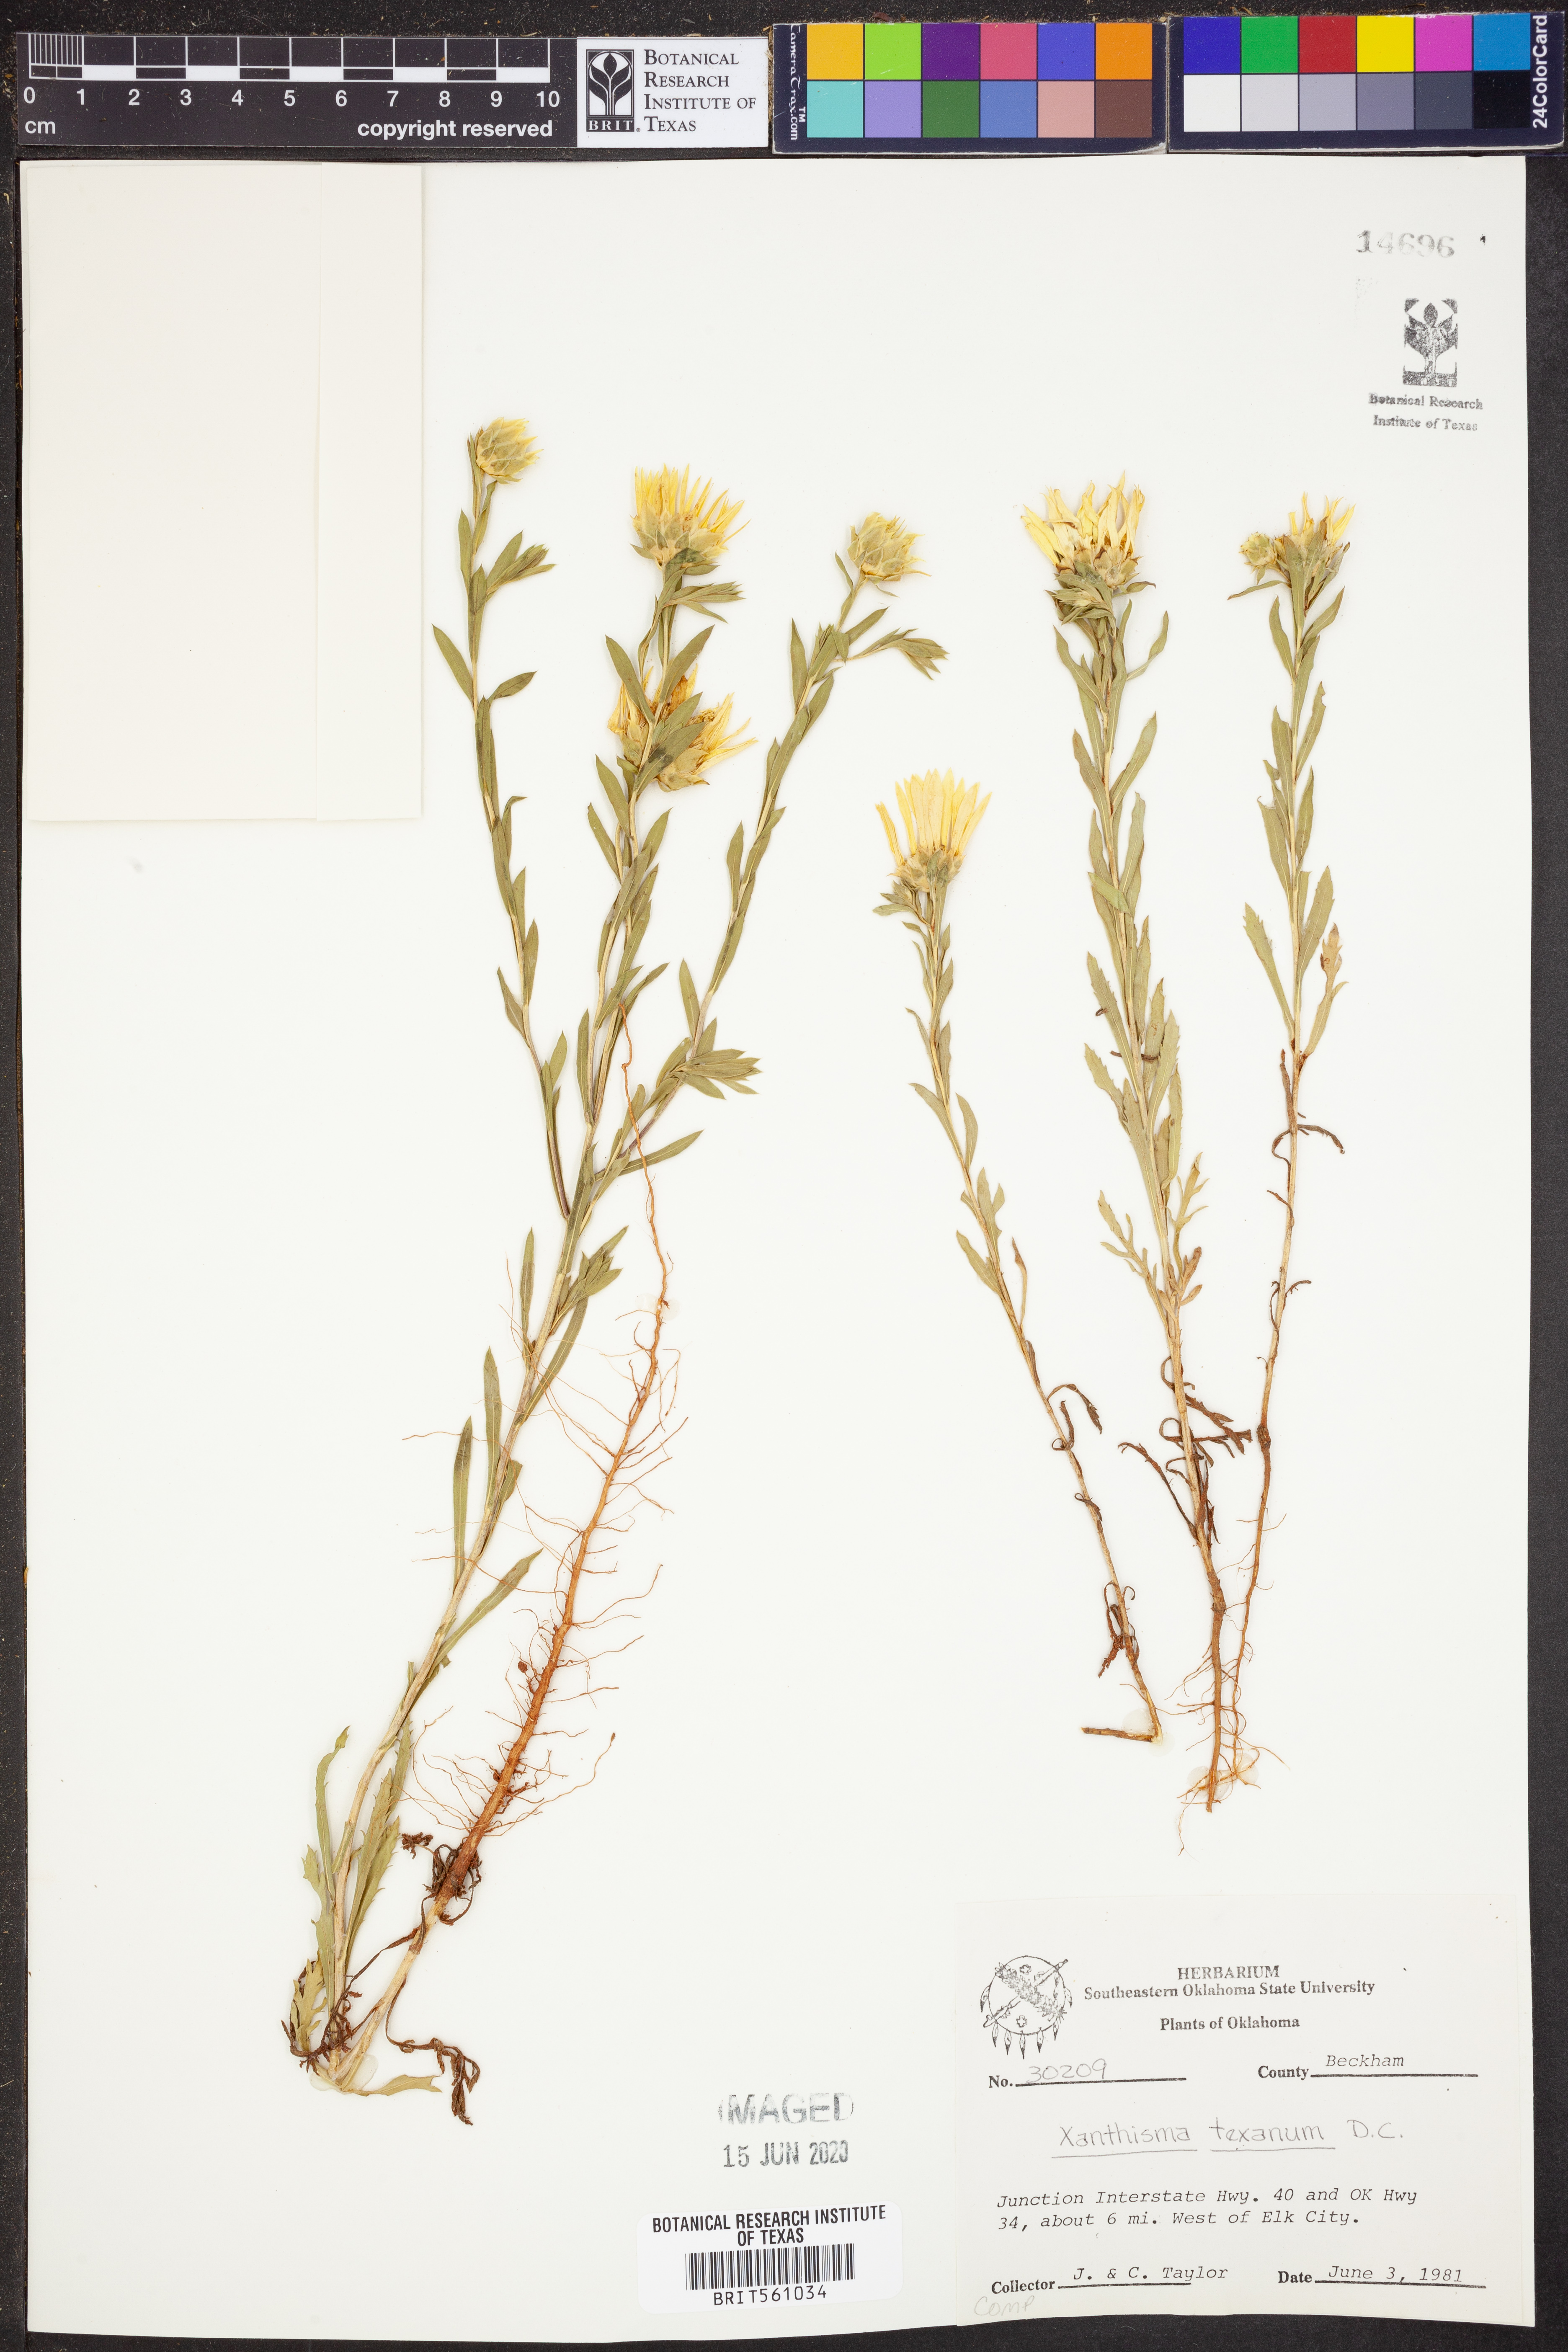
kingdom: Plantae
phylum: Tracheophyta
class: Magnoliopsida
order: Asterales
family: Asteraceae
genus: Xanthisma
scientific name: Xanthisma texanum
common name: Texas sleepy daisy
